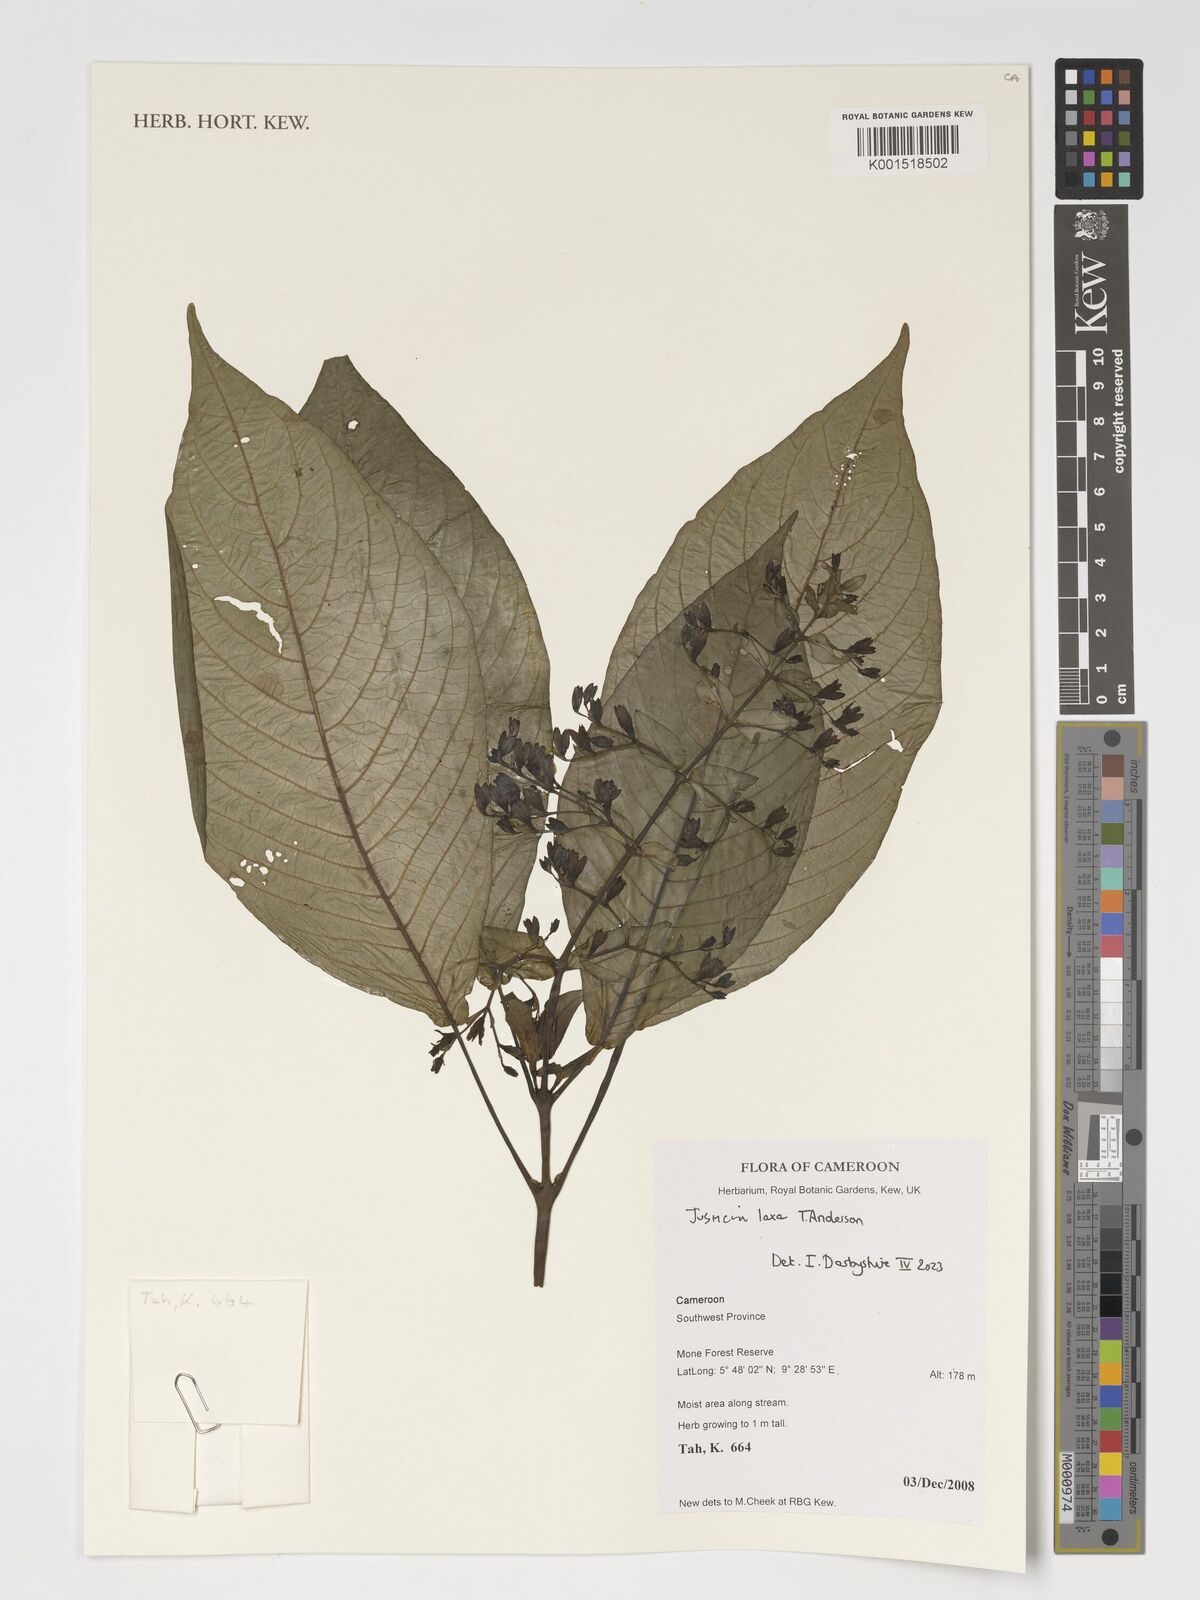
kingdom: Plantae
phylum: Tracheophyta
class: Magnoliopsida
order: Lamiales
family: Acanthaceae
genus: Justicia
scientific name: Justicia laxa
